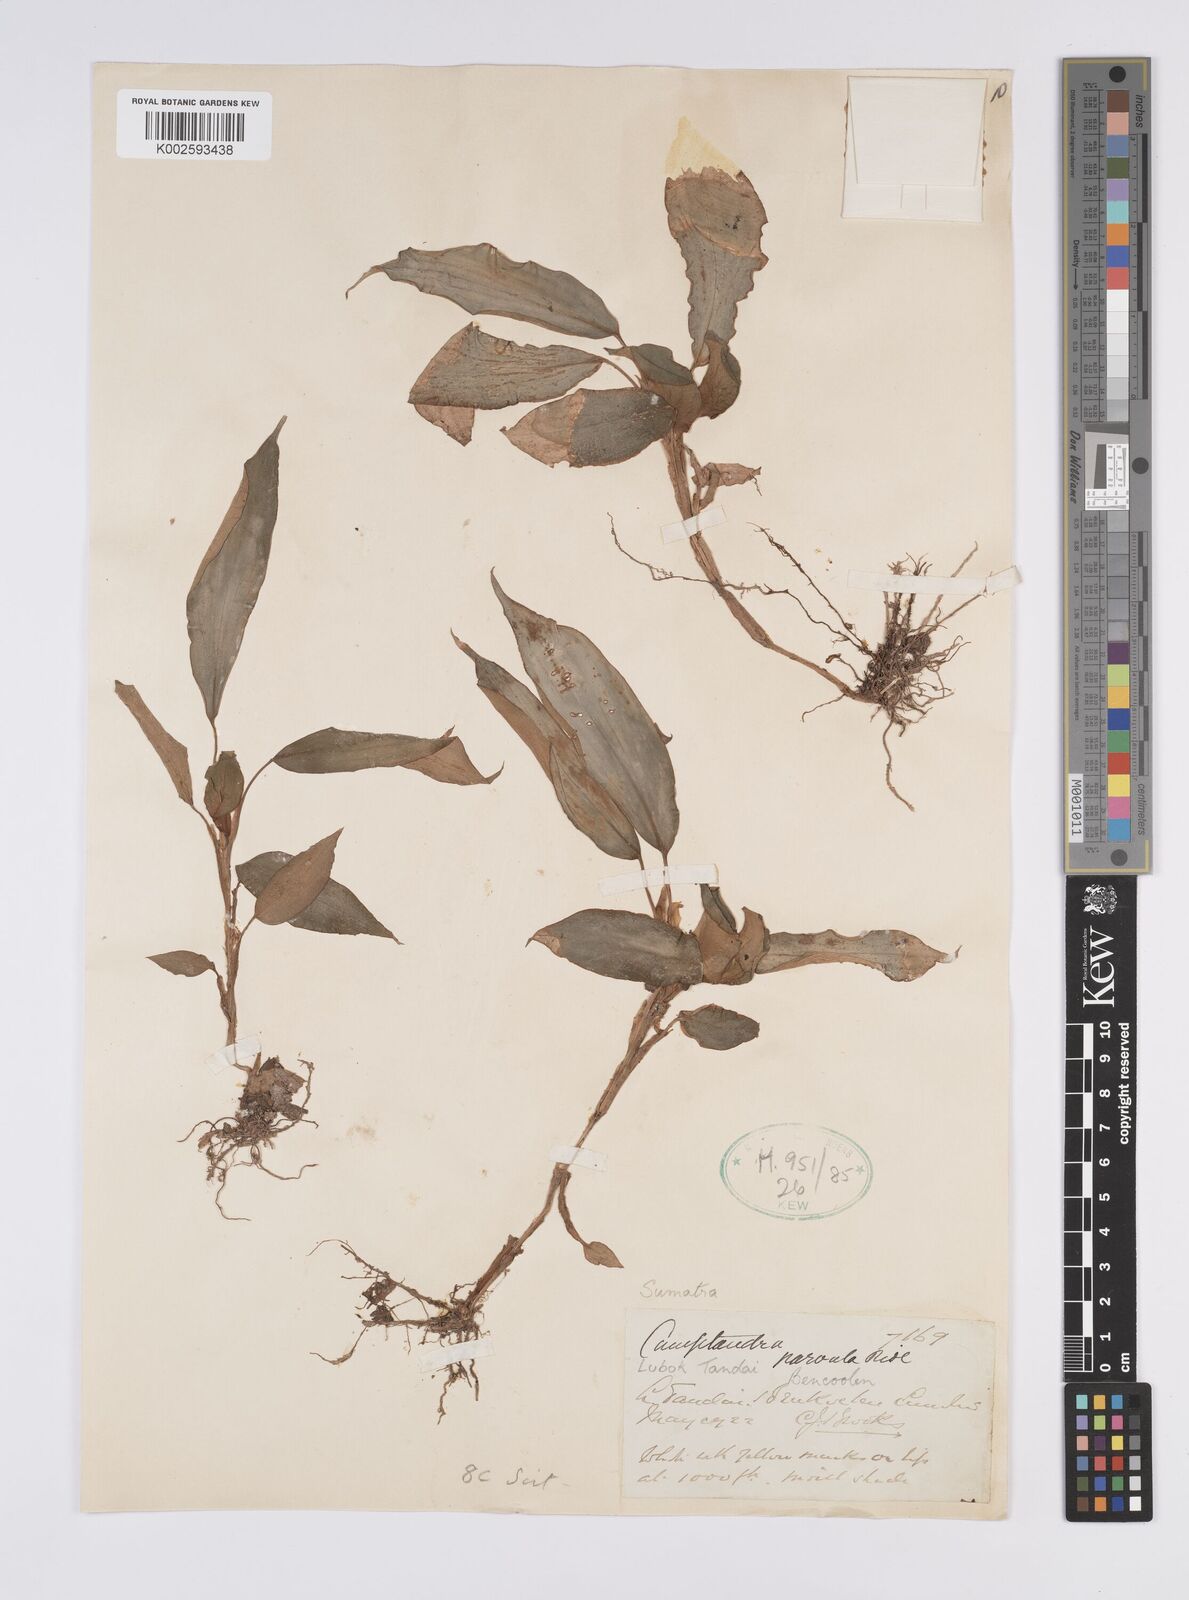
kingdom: Plantae
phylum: Tracheophyta
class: Liliopsida
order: Zingiberales
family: Zingiberaceae
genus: Camptandra
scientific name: Camptandra parvula
